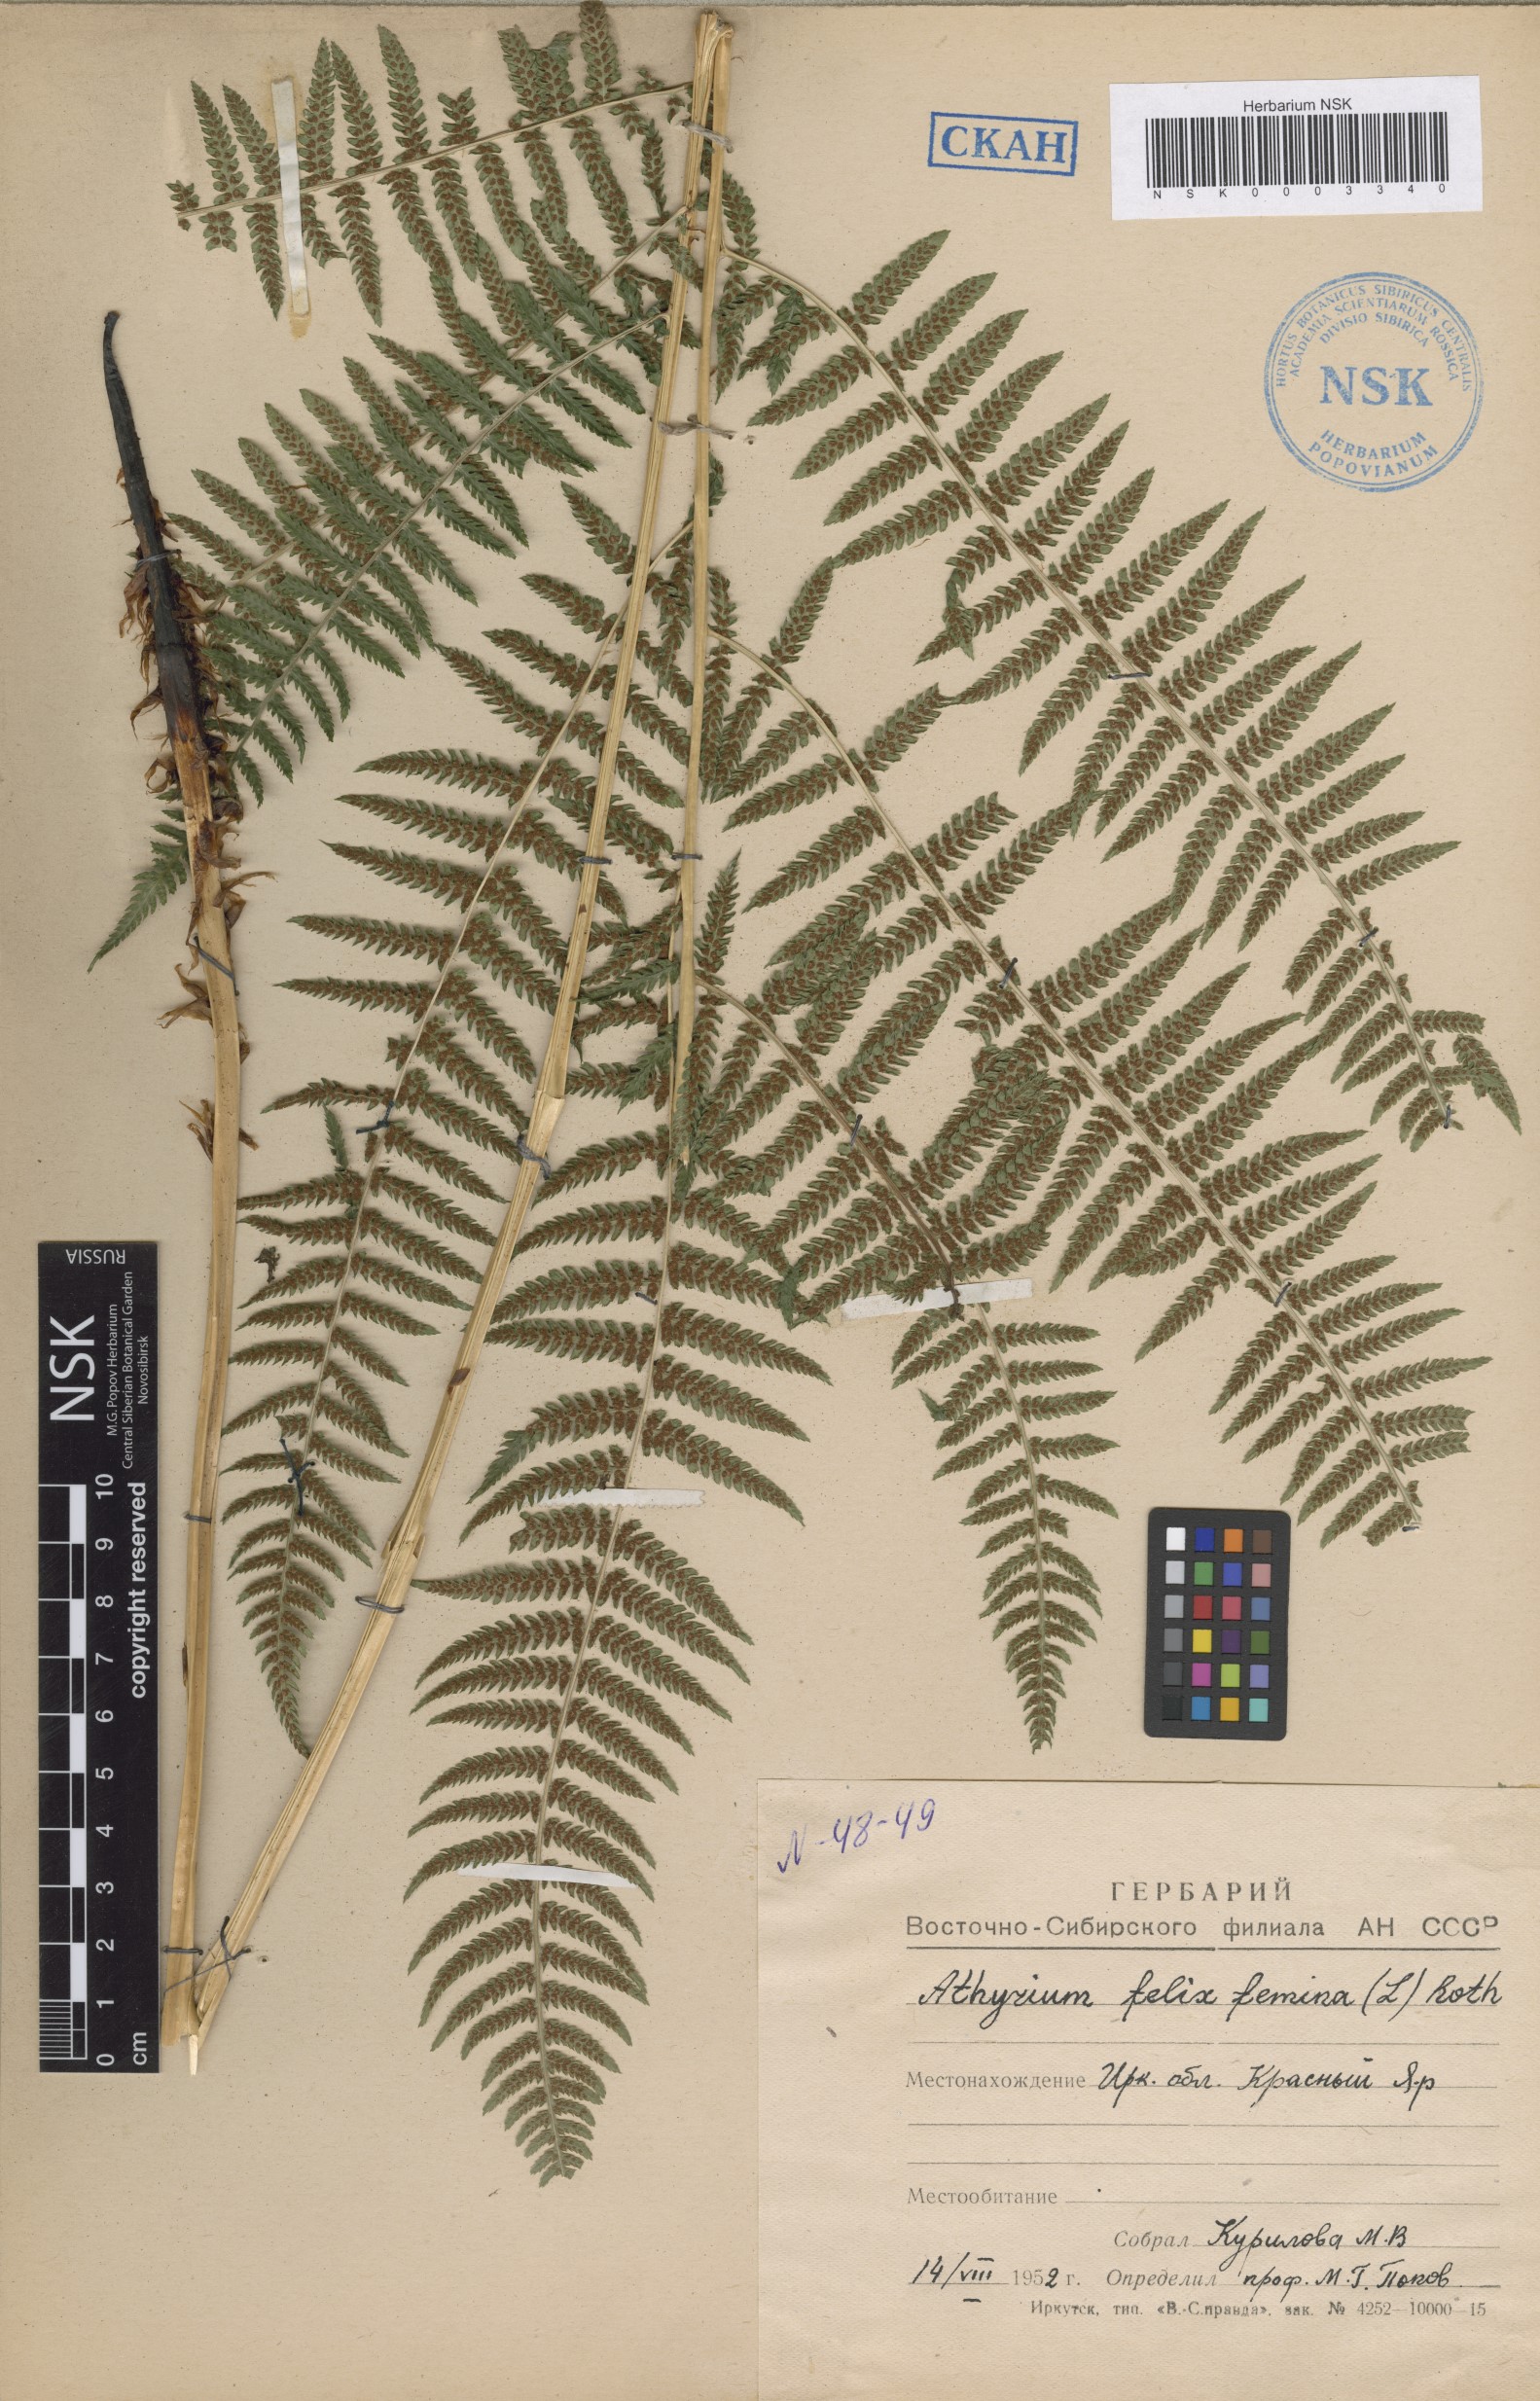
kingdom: Plantae
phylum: Tracheophyta
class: Polypodiopsida
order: Polypodiales
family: Athyriaceae
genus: Athyrium
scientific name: Athyrium filix-femina
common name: Lady fern
